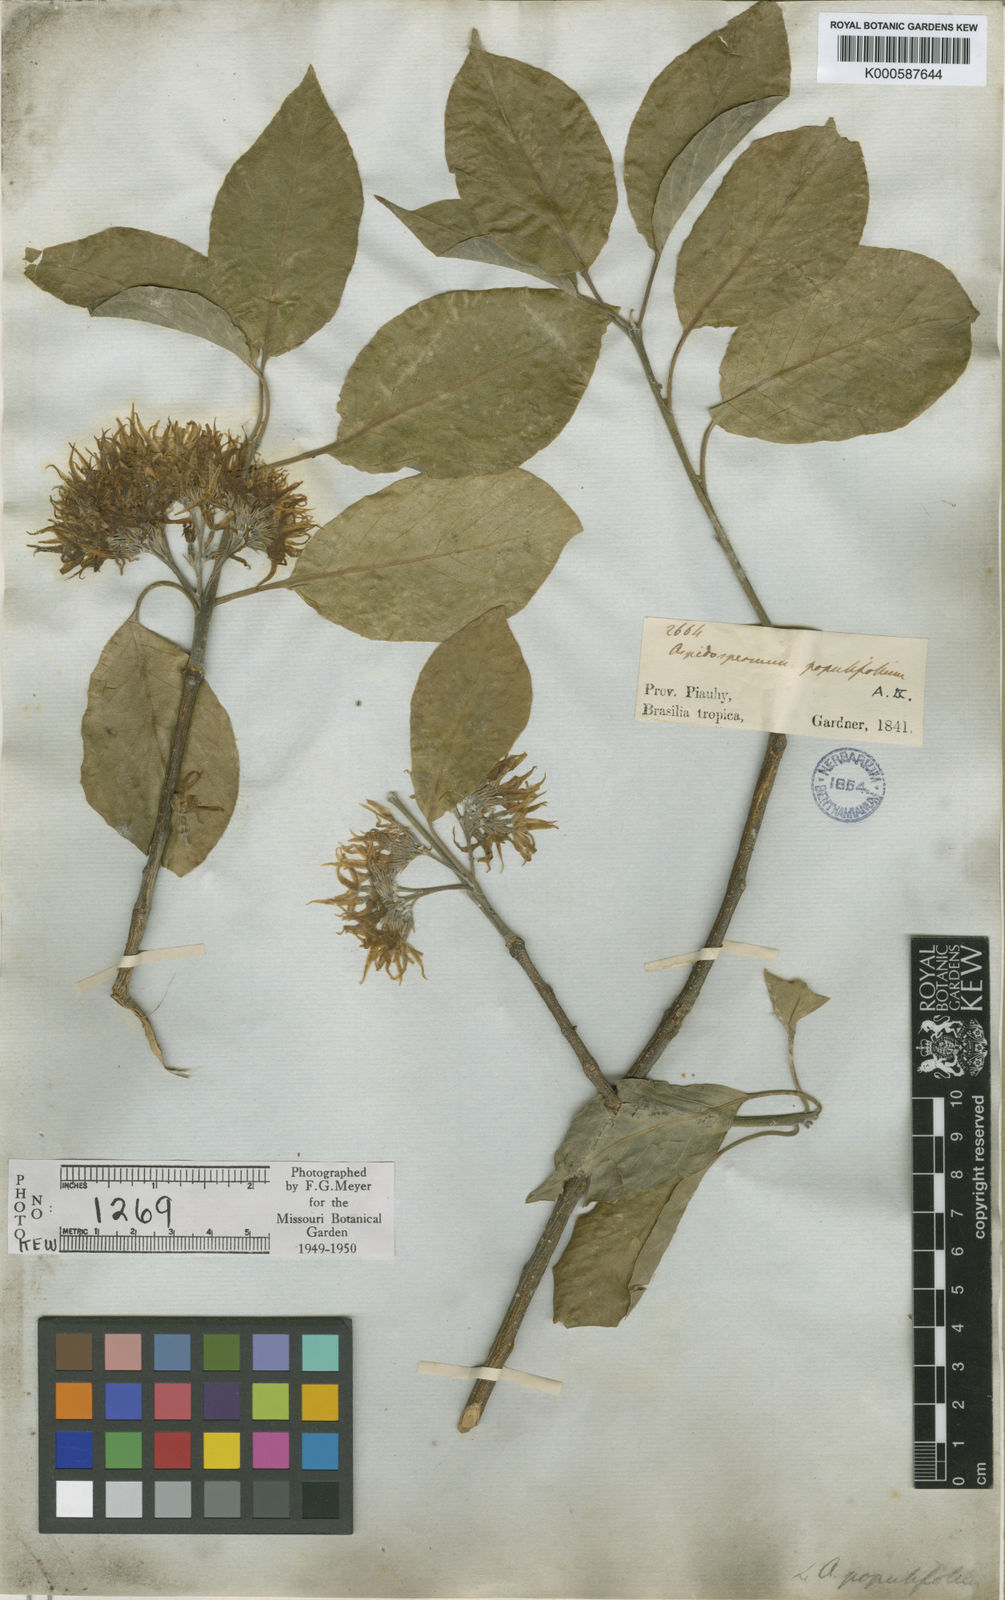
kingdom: Plantae
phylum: Tracheophyta
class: Magnoliopsida
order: Gentianales
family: Apocynaceae
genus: Aspidosperma
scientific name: Aspidosperma pyrifolium
